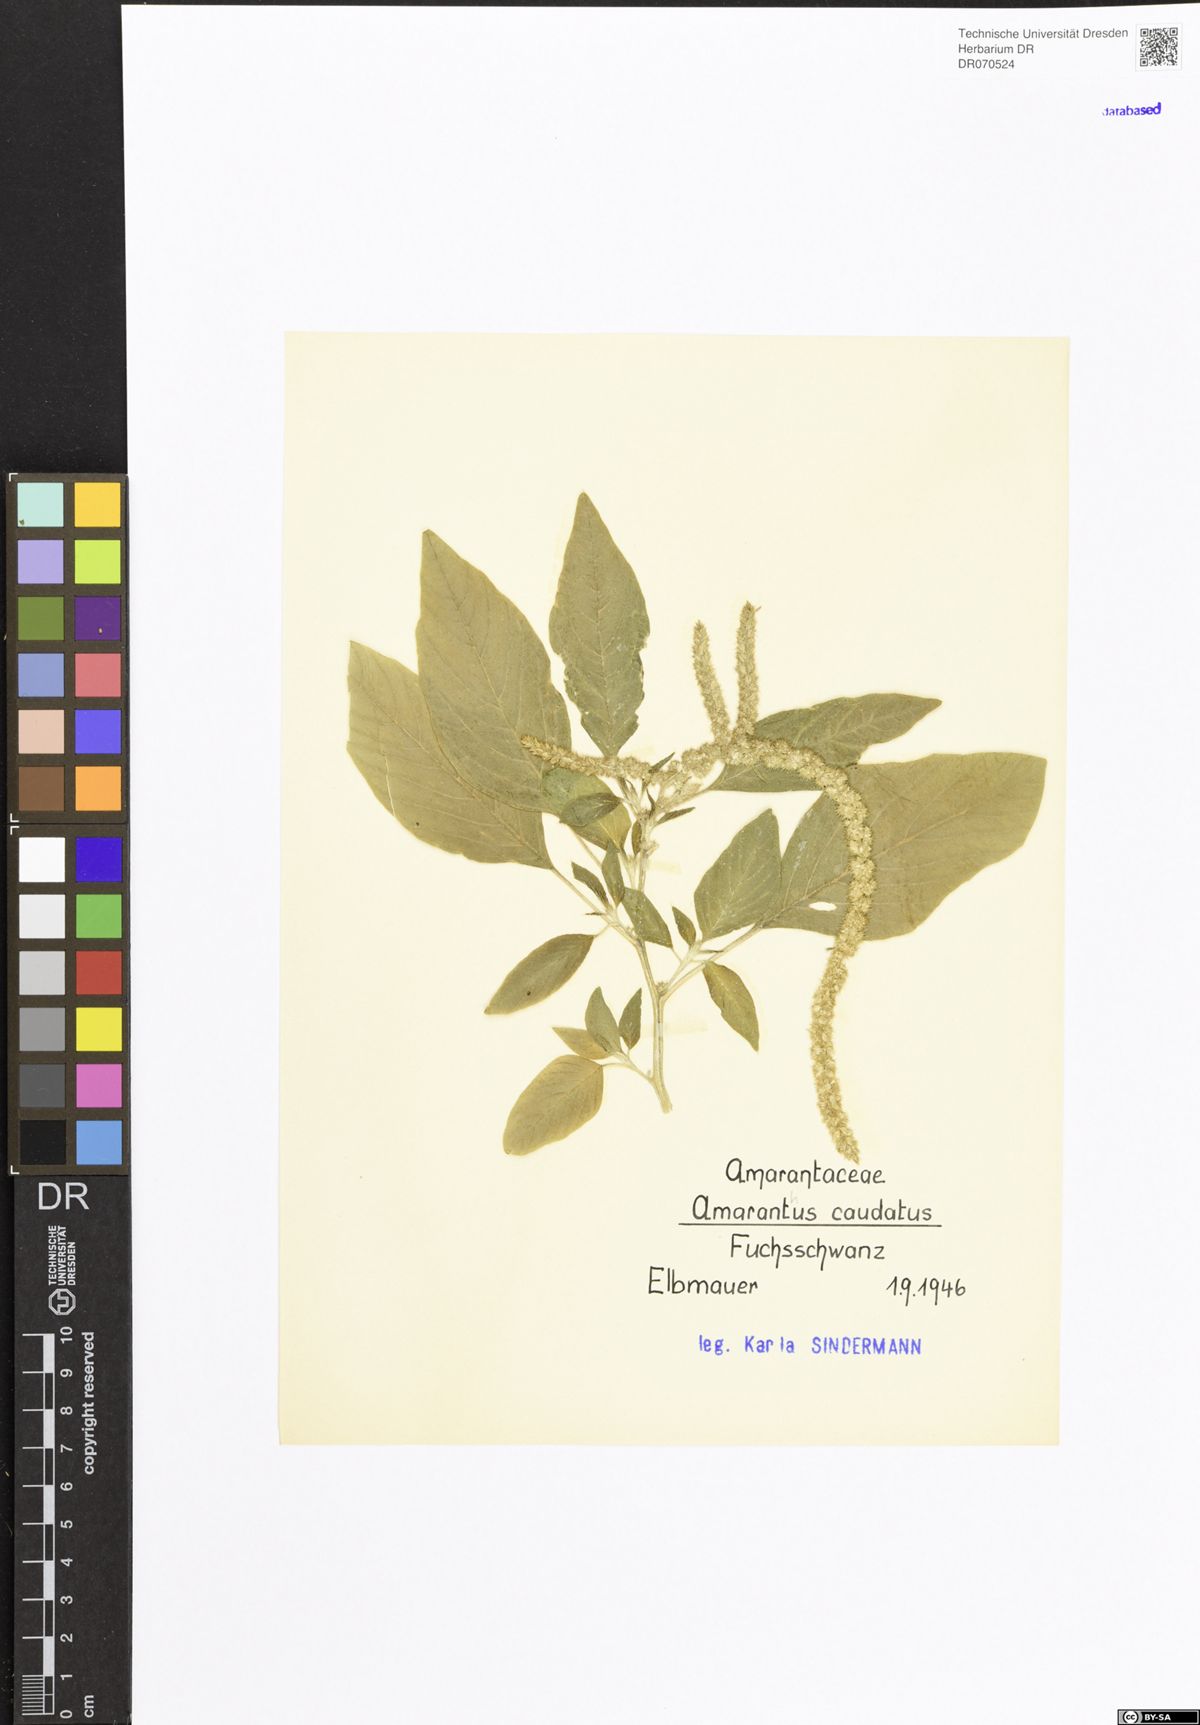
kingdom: Plantae
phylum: Tracheophyta
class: Magnoliopsida
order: Caryophyllales
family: Amaranthaceae
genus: Amaranthus
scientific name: Amaranthus caudatus
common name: Love-lies-bleeding
